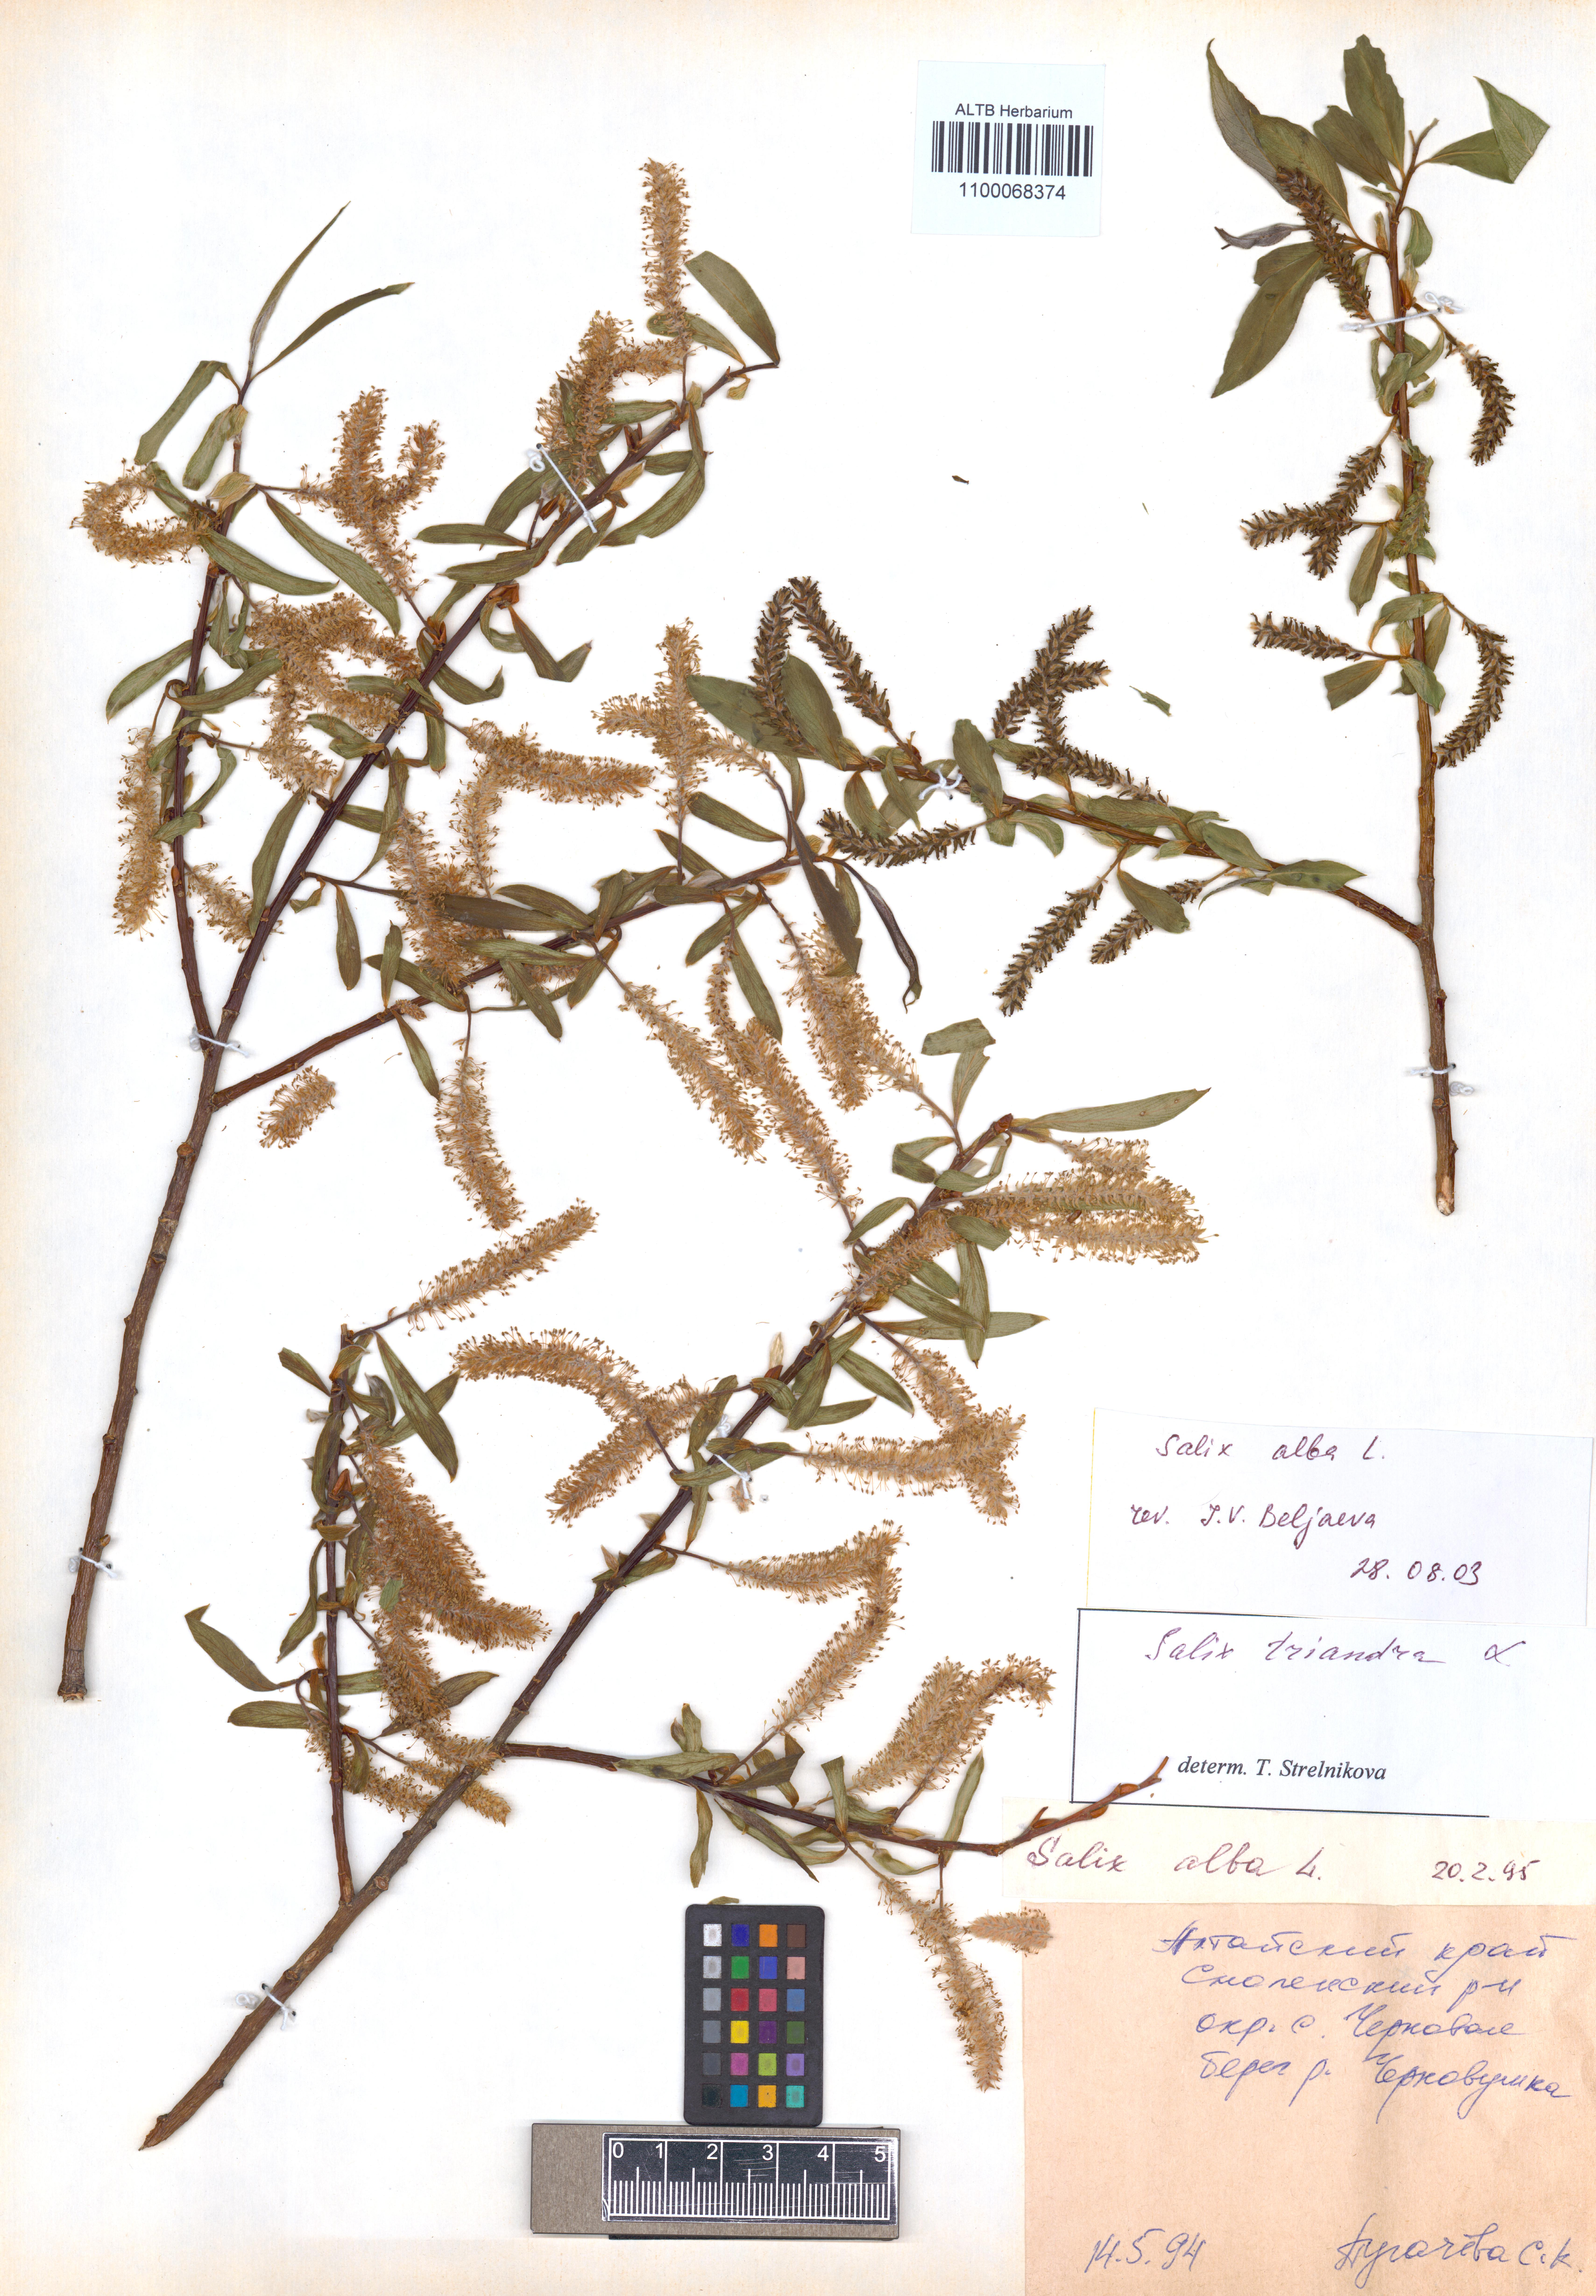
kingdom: Plantae
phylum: Tracheophyta
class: Magnoliopsida
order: Malpighiales
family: Salicaceae
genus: Salix
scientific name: Salix alba
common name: White willow
